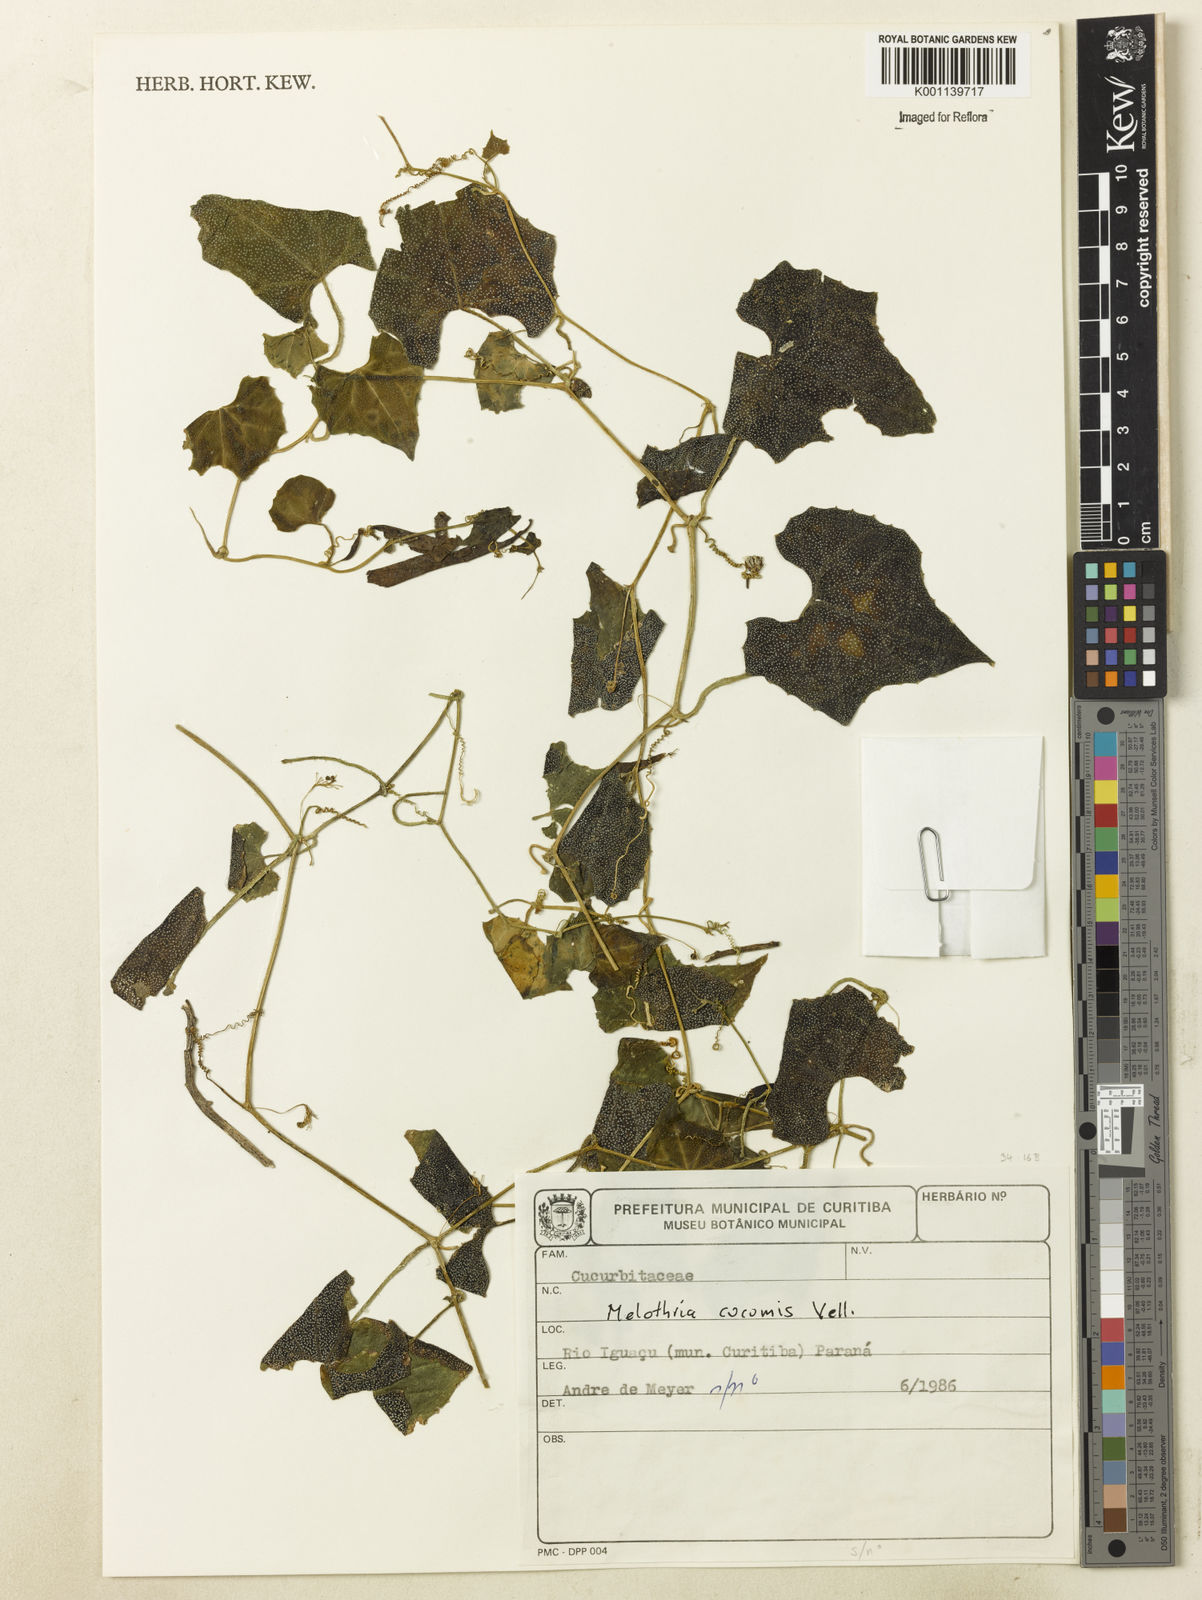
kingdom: Plantae
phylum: Tracheophyta
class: Magnoliopsida
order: Cucurbitales
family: Cucurbitaceae
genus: Melothria
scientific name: Melothria cucumis
